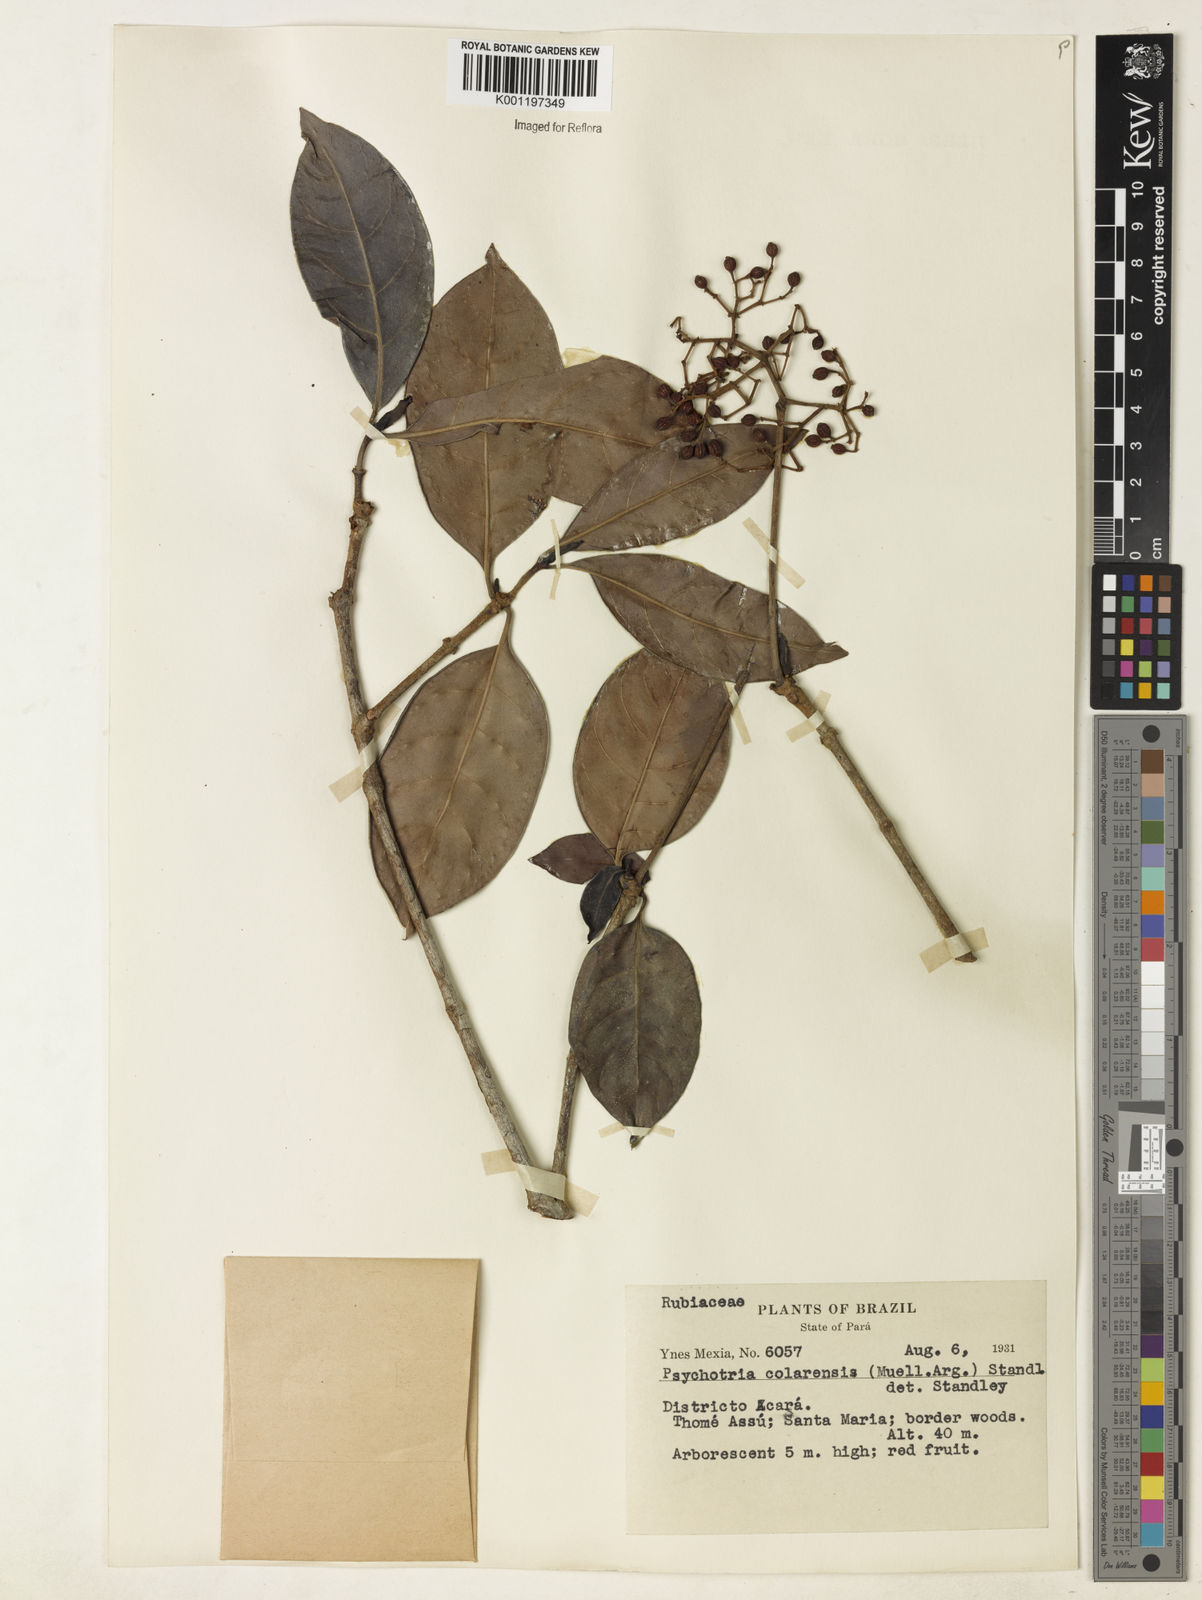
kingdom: Plantae
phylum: Tracheophyta
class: Magnoliopsida
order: Gentianales
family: Rubiaceae
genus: Psychotria
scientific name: Psychotria
